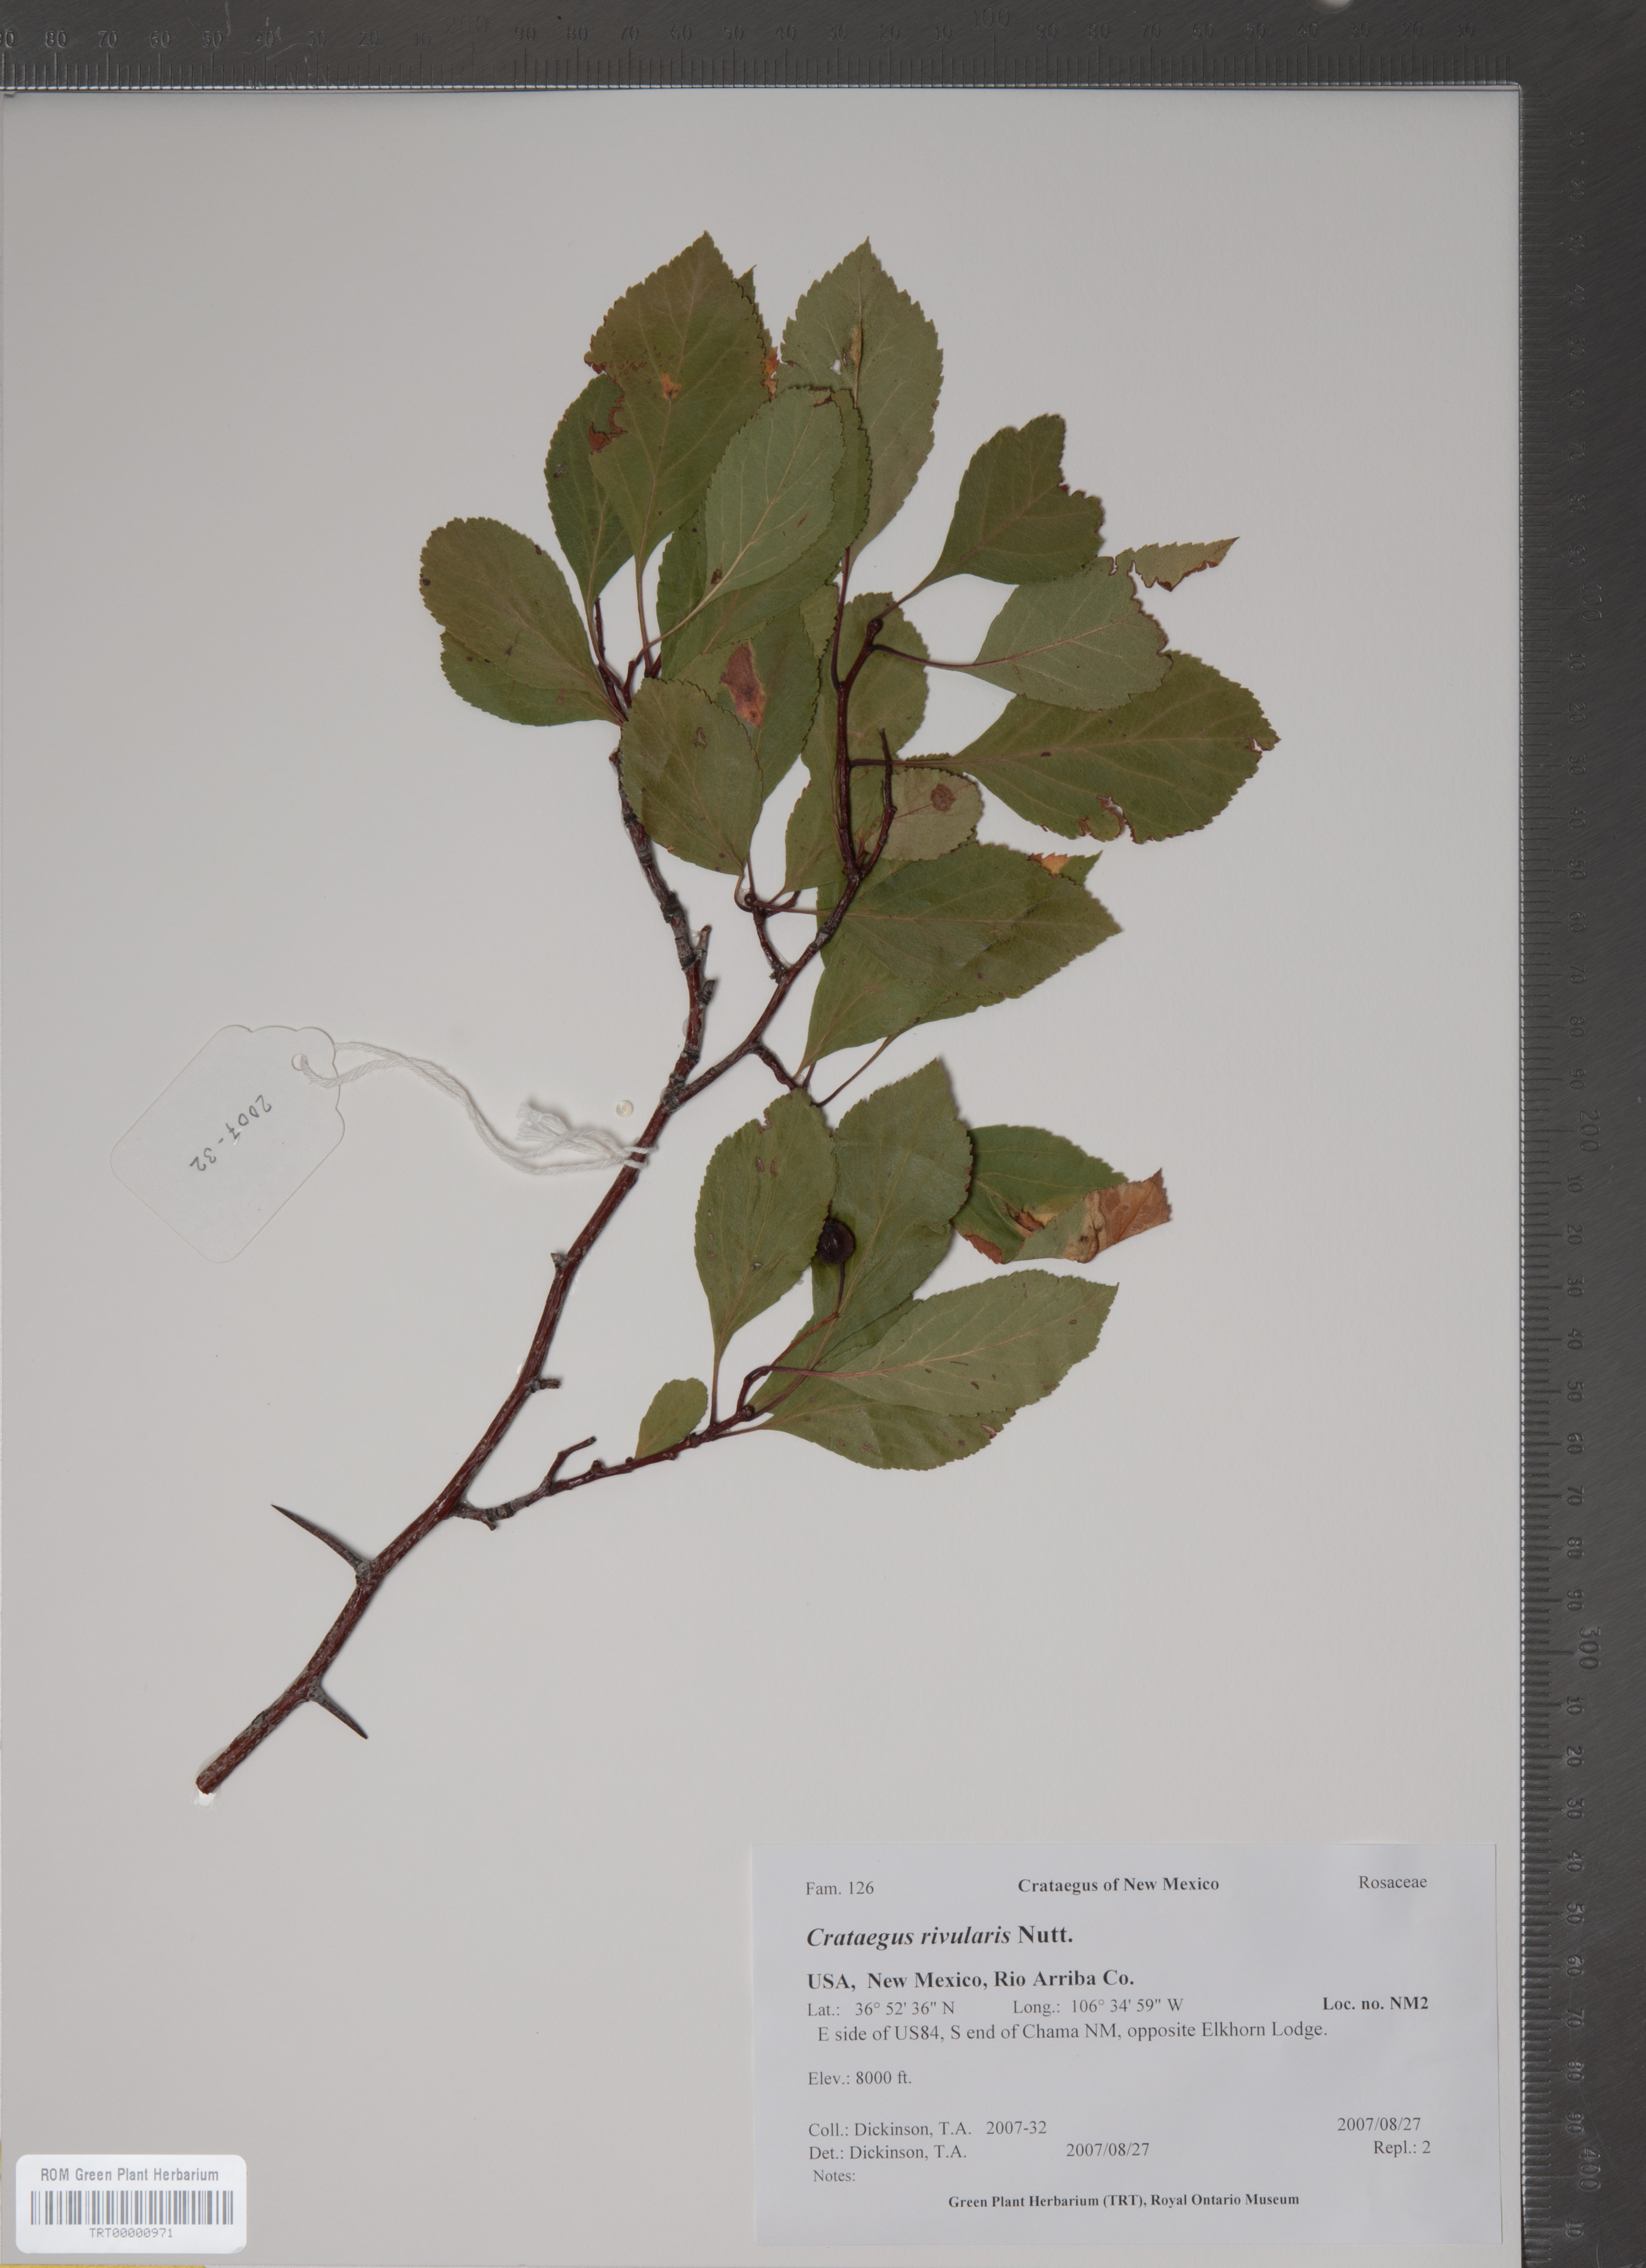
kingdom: Plantae
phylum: Tracheophyta
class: Magnoliopsida
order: Rosales
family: Rosaceae
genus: Crataegus
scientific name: Crataegus rivularis
